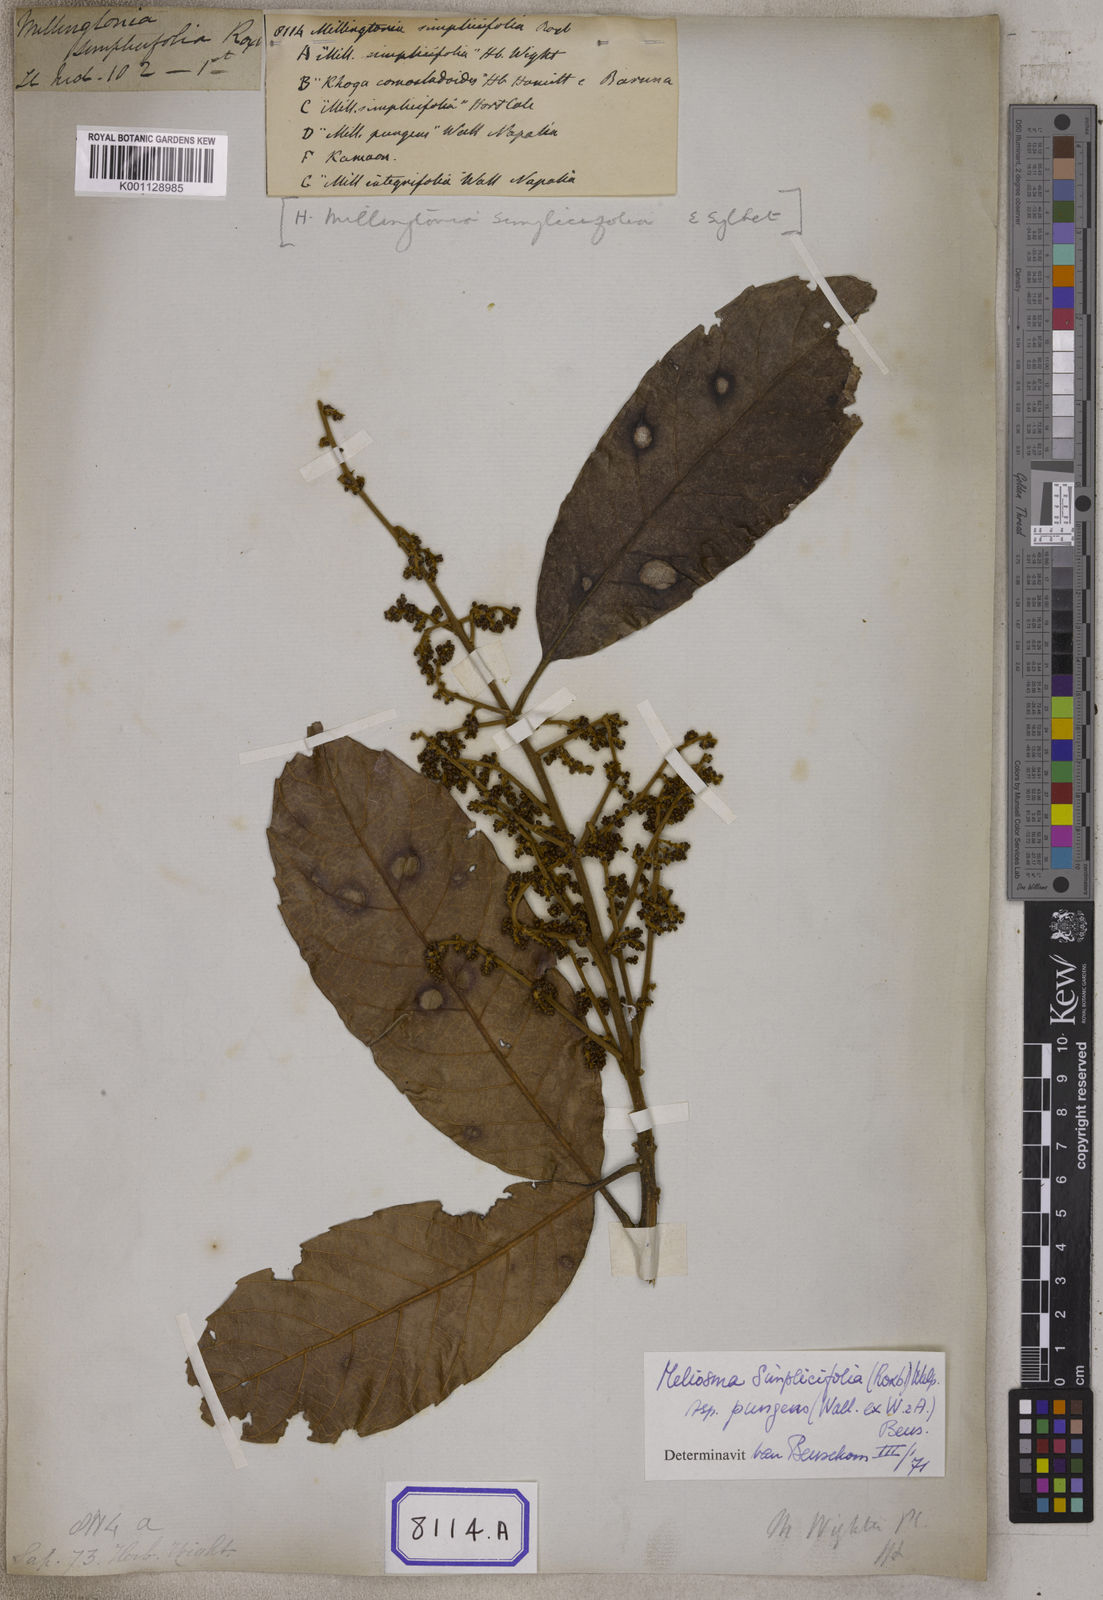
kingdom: Plantae
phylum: Tracheophyta
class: Magnoliopsida
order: Proteales
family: Sabiaceae
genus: Meliosma
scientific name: Meliosma simplicifolia
